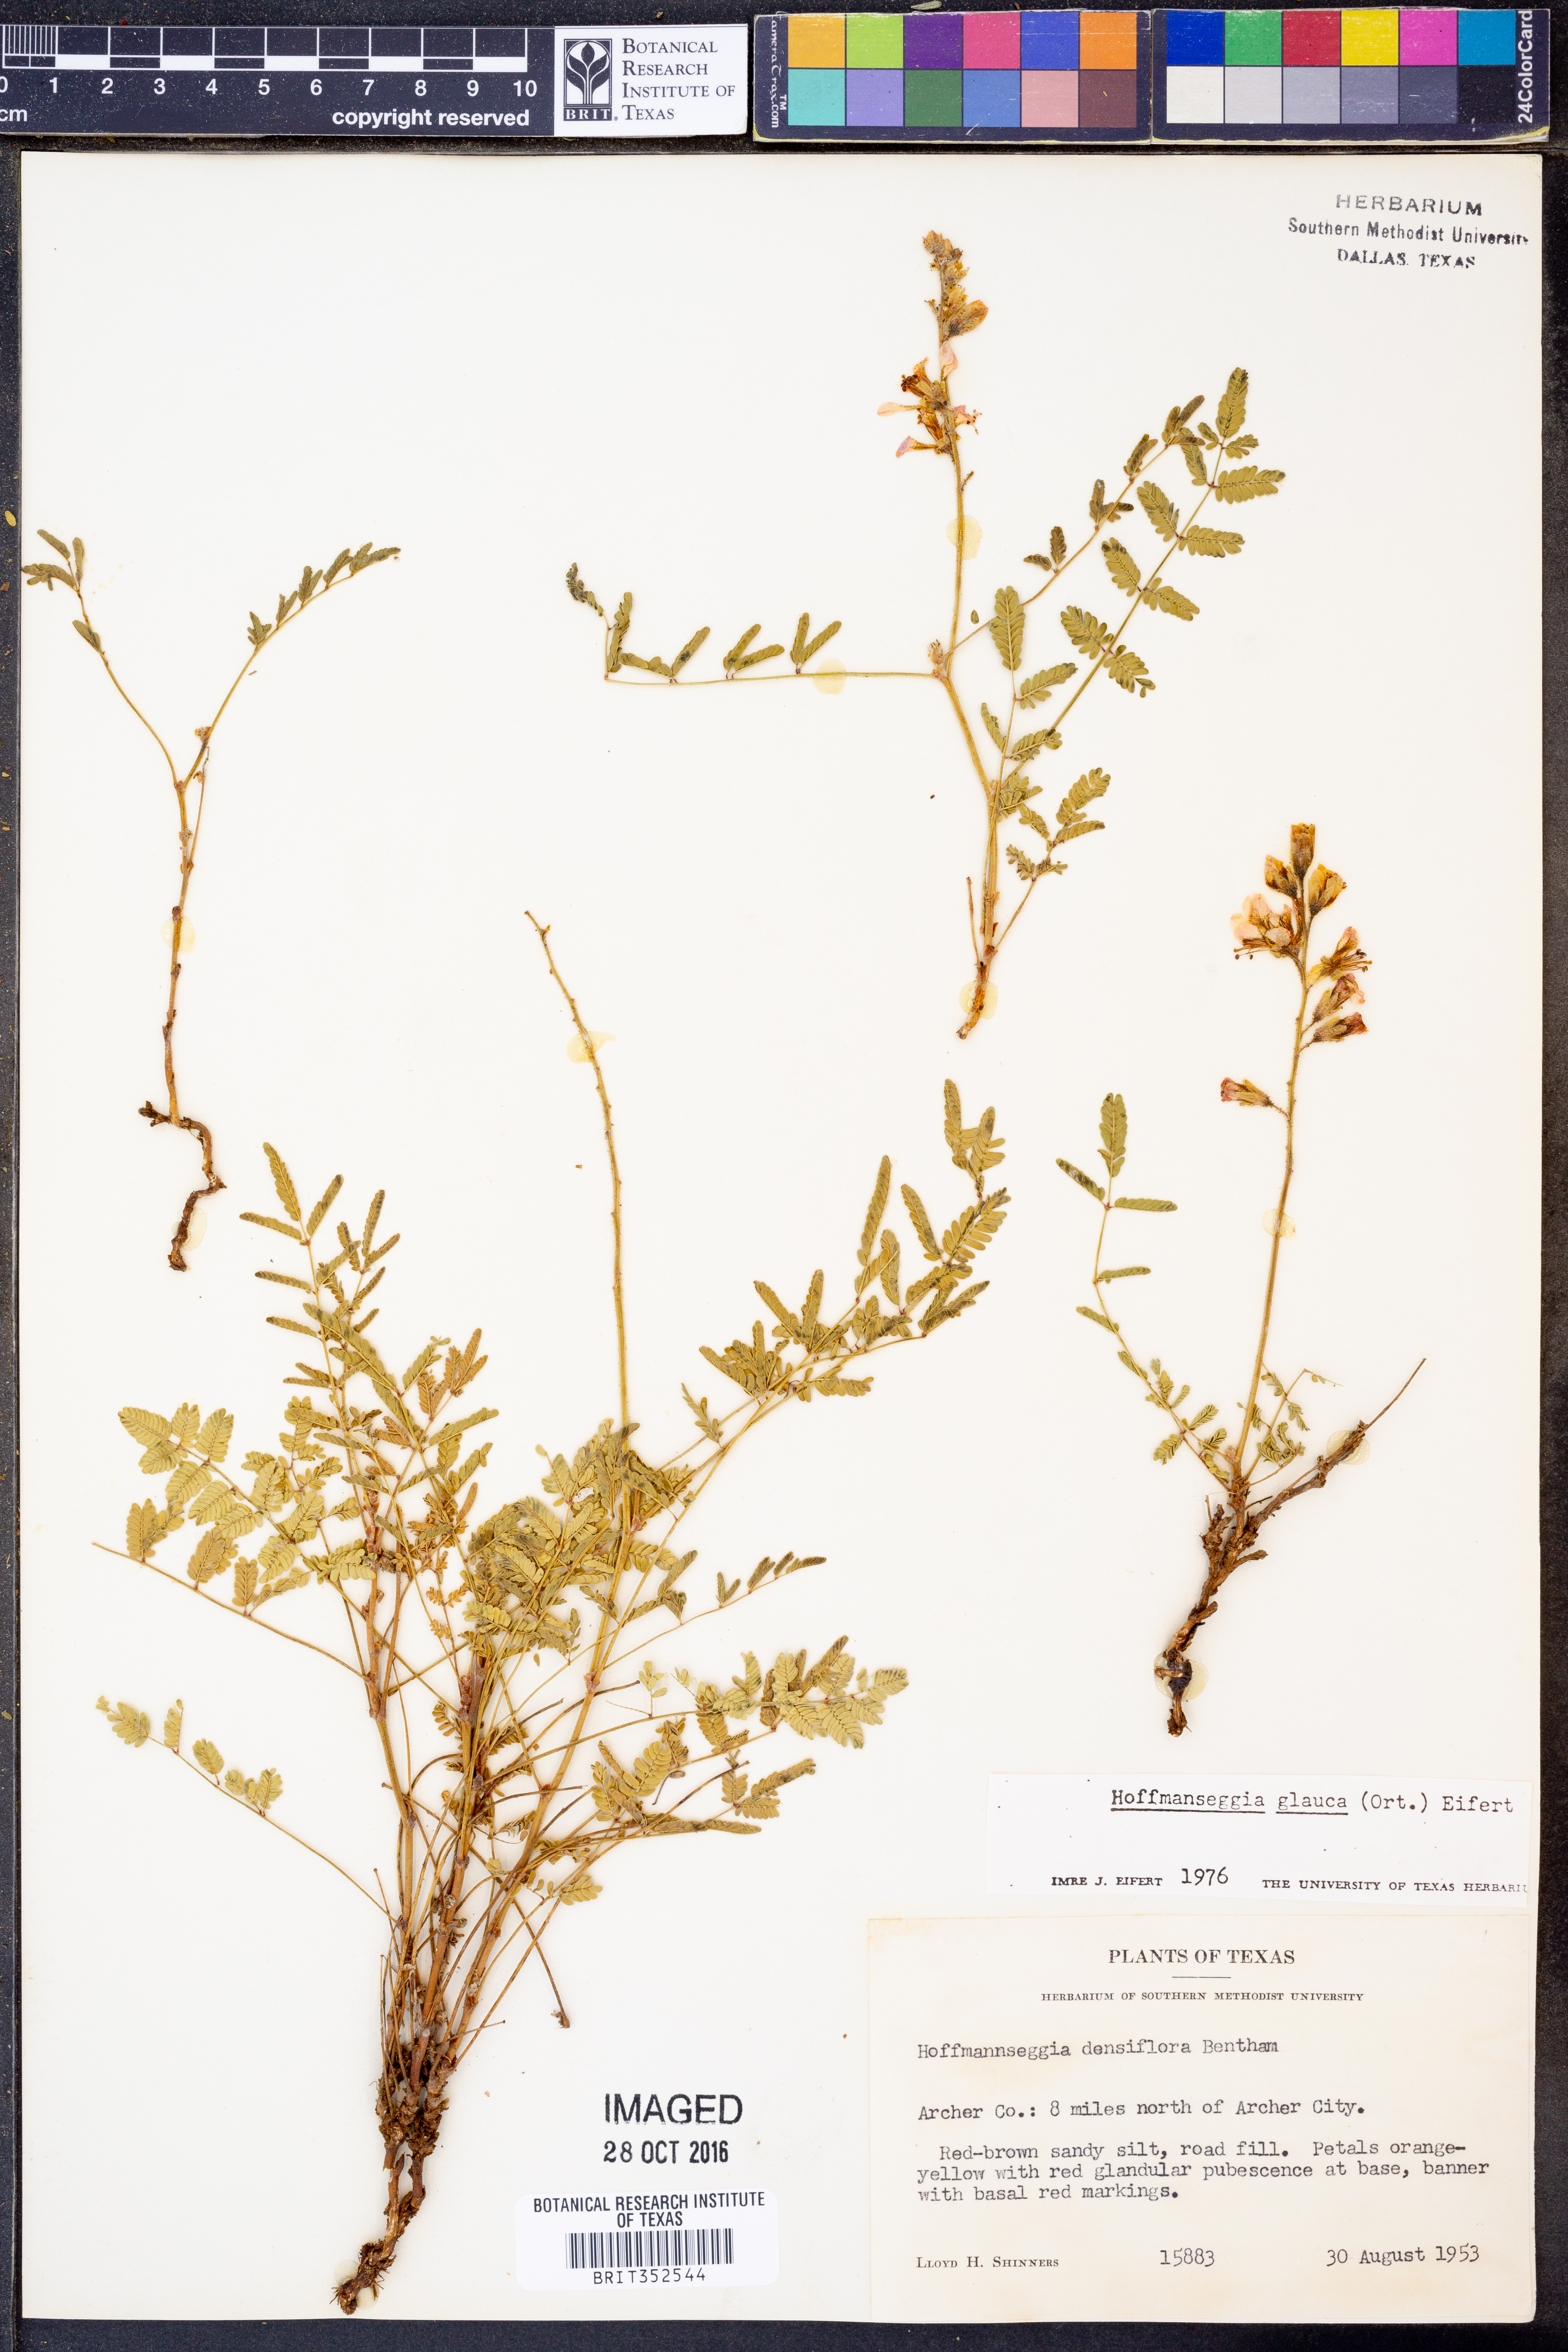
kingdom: Plantae
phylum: Tracheophyta
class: Magnoliopsida
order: Fabales
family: Fabaceae
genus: Hoffmannseggia
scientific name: Hoffmannseggia glauca
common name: Pignut
